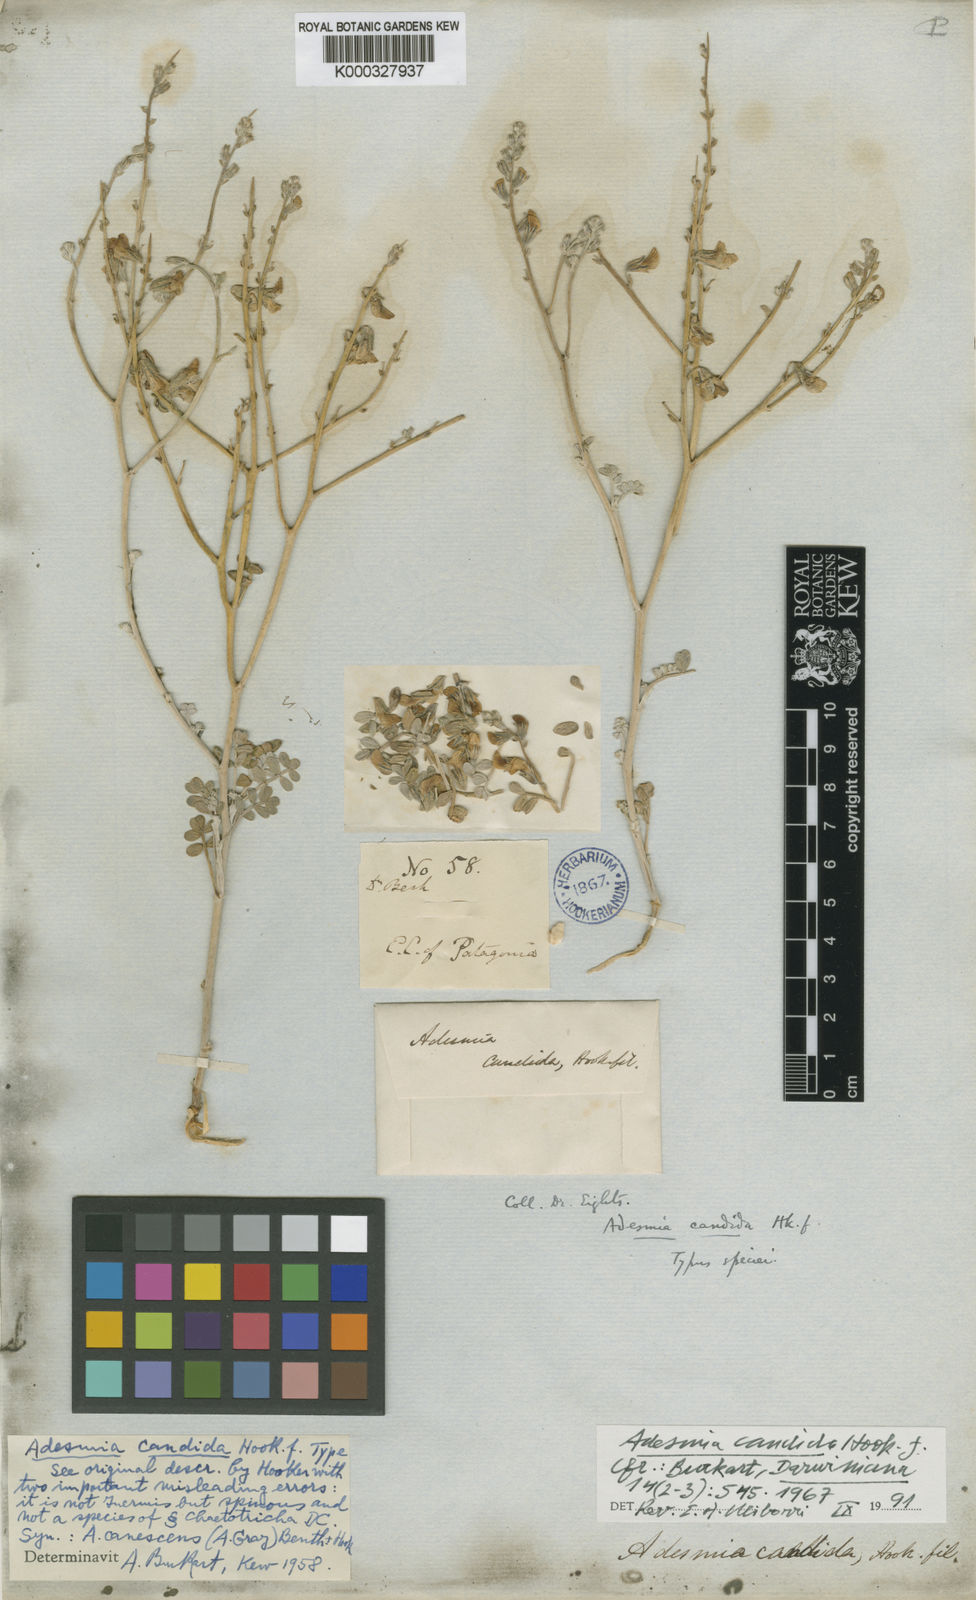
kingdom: Plantae
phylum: Tracheophyta
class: Magnoliopsida
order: Fabales
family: Fabaceae
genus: Adesmia
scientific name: Adesmia candida
